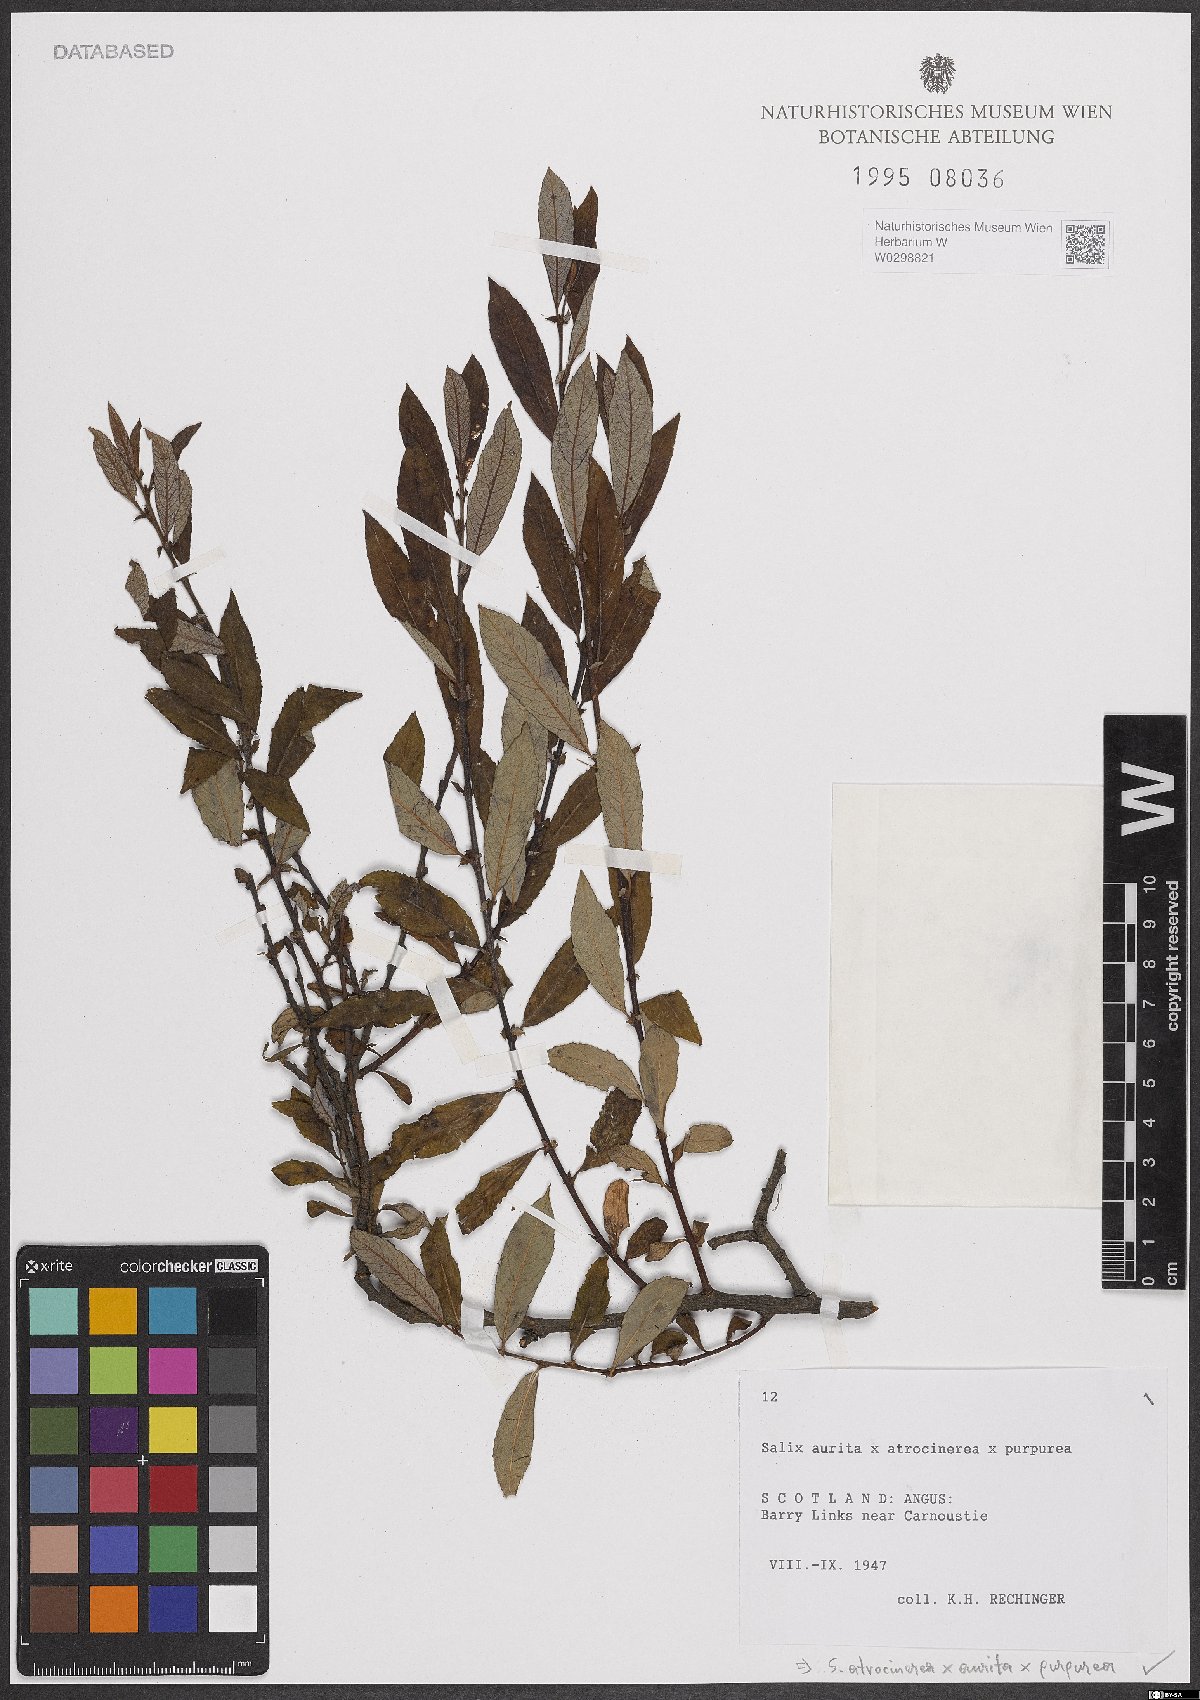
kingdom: Plantae
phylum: Tracheophyta
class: Magnoliopsida
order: Malpighiales
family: Salicaceae
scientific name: Salicaceae
